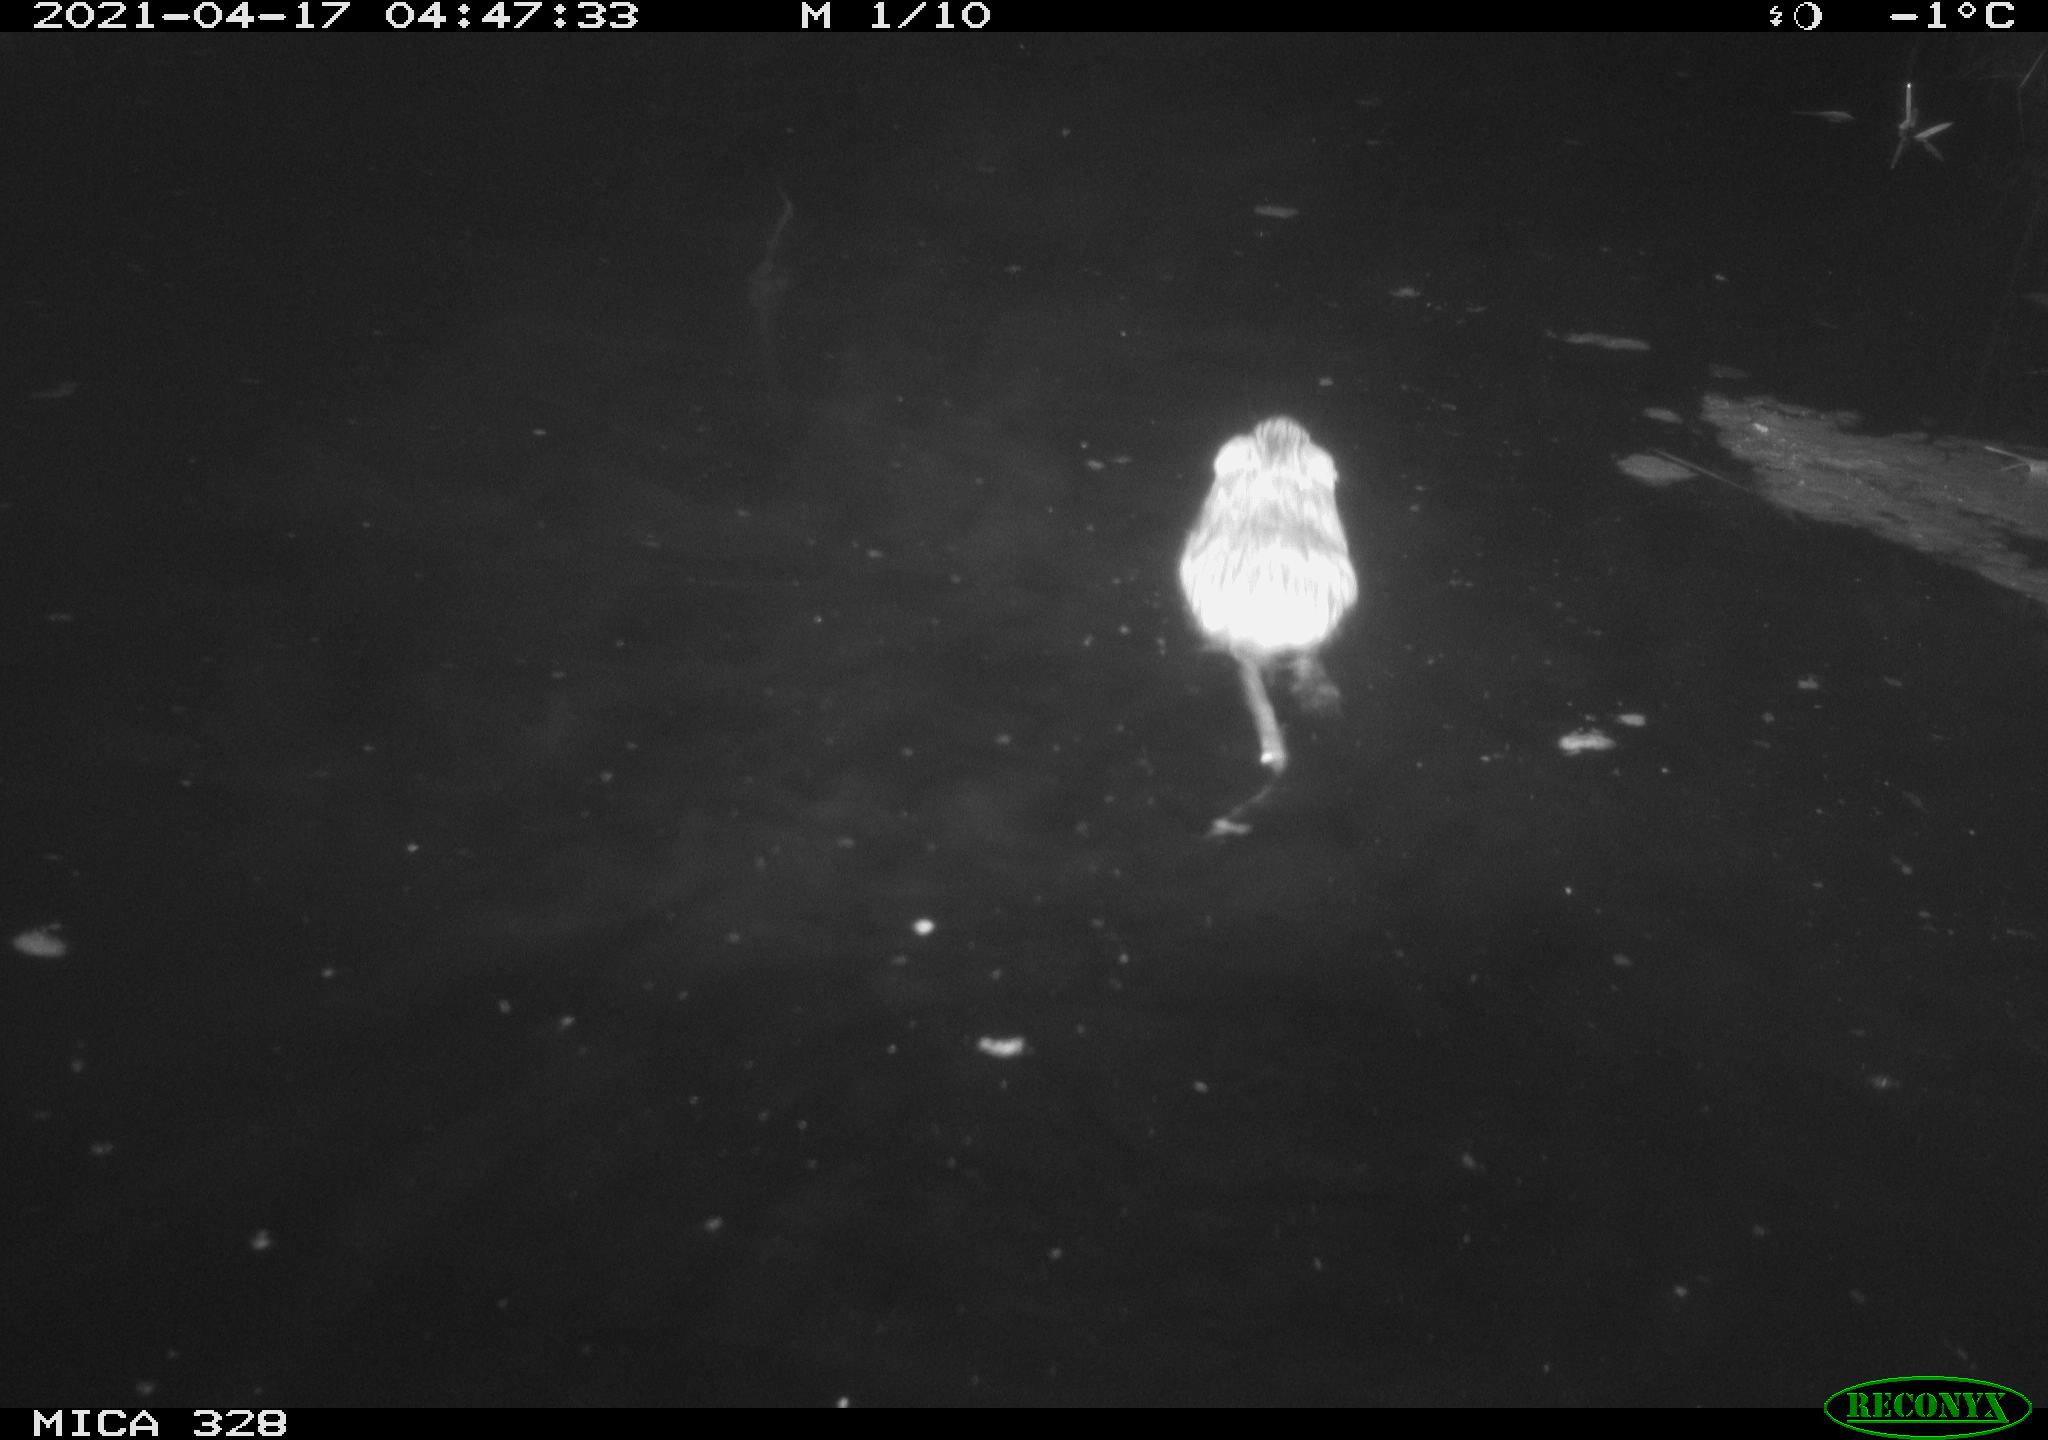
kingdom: Animalia
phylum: Chordata
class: Mammalia
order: Rodentia
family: Cricetidae
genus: Ondatra
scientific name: Ondatra zibethicus
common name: Muskrat
